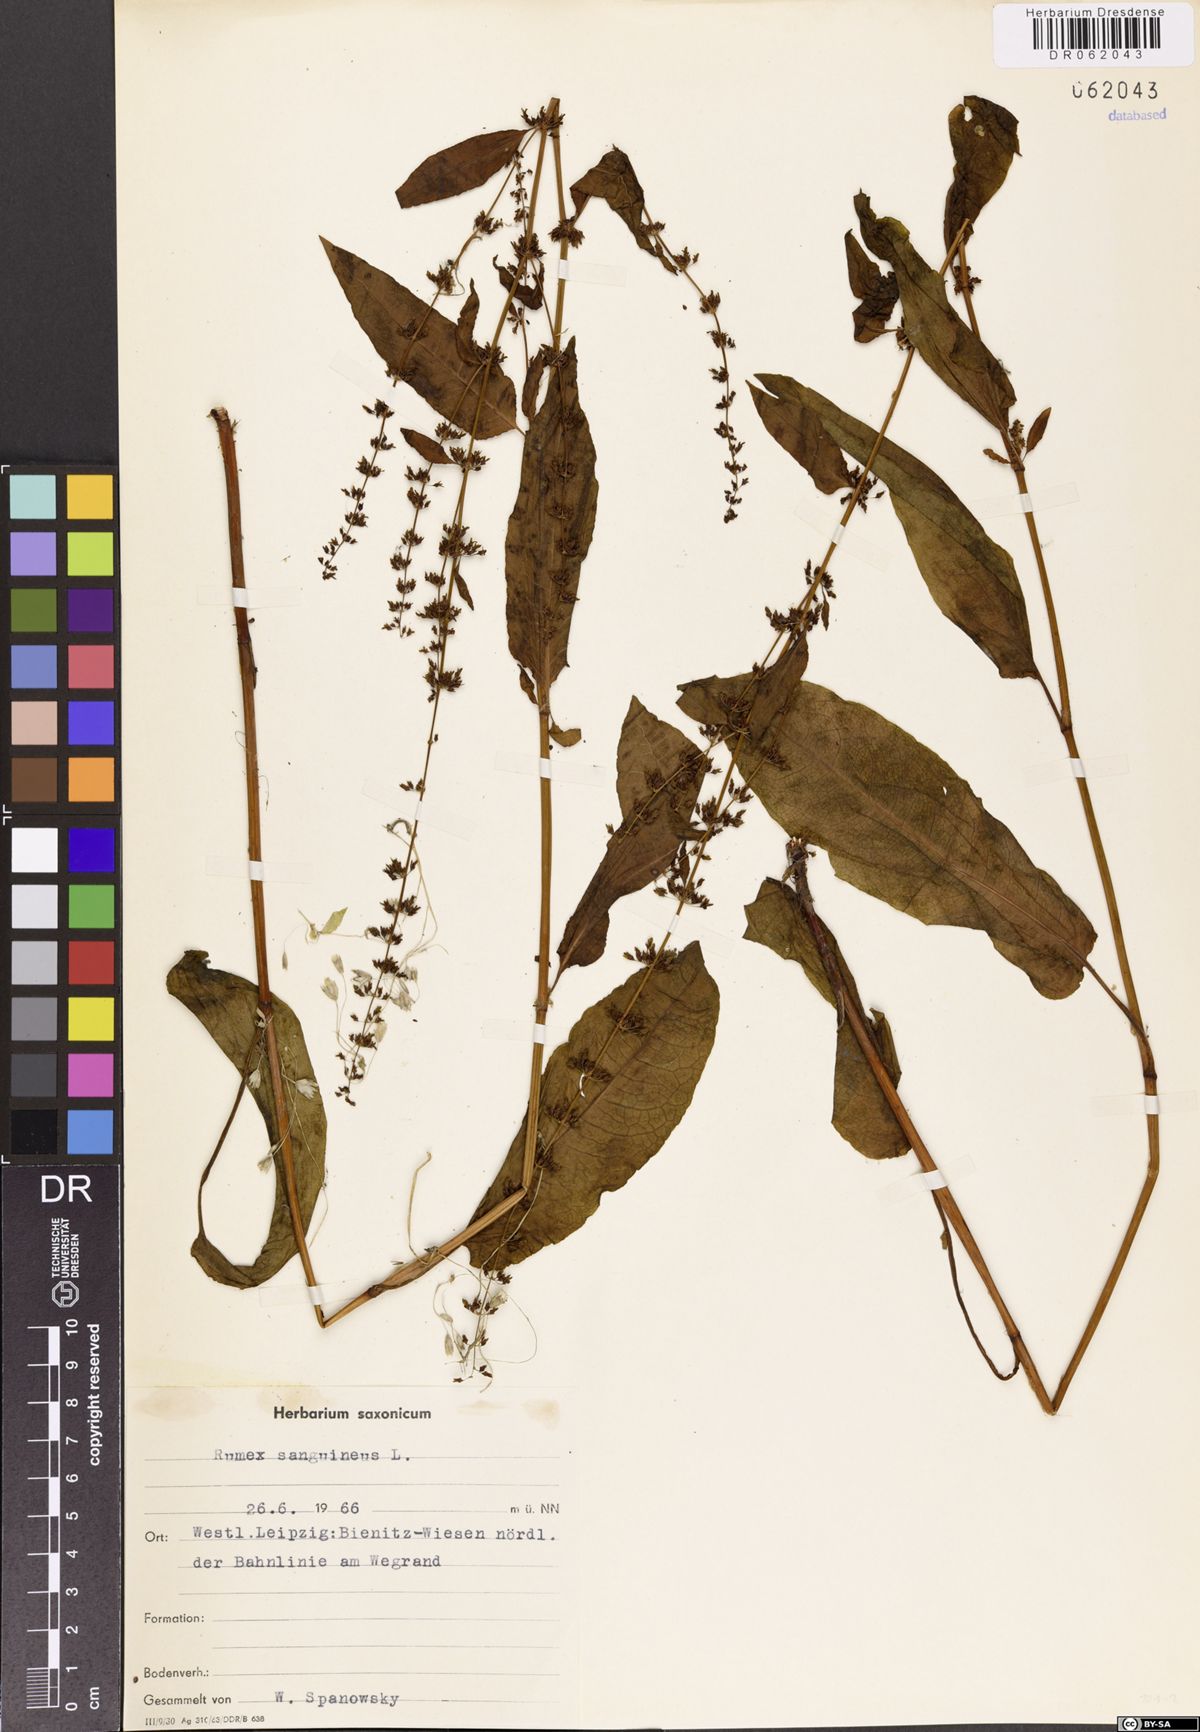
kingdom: Plantae
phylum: Tracheophyta
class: Magnoliopsida
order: Caryophyllales
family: Polygonaceae
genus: Rumex
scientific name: Rumex sanguineus
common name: Wood dock
